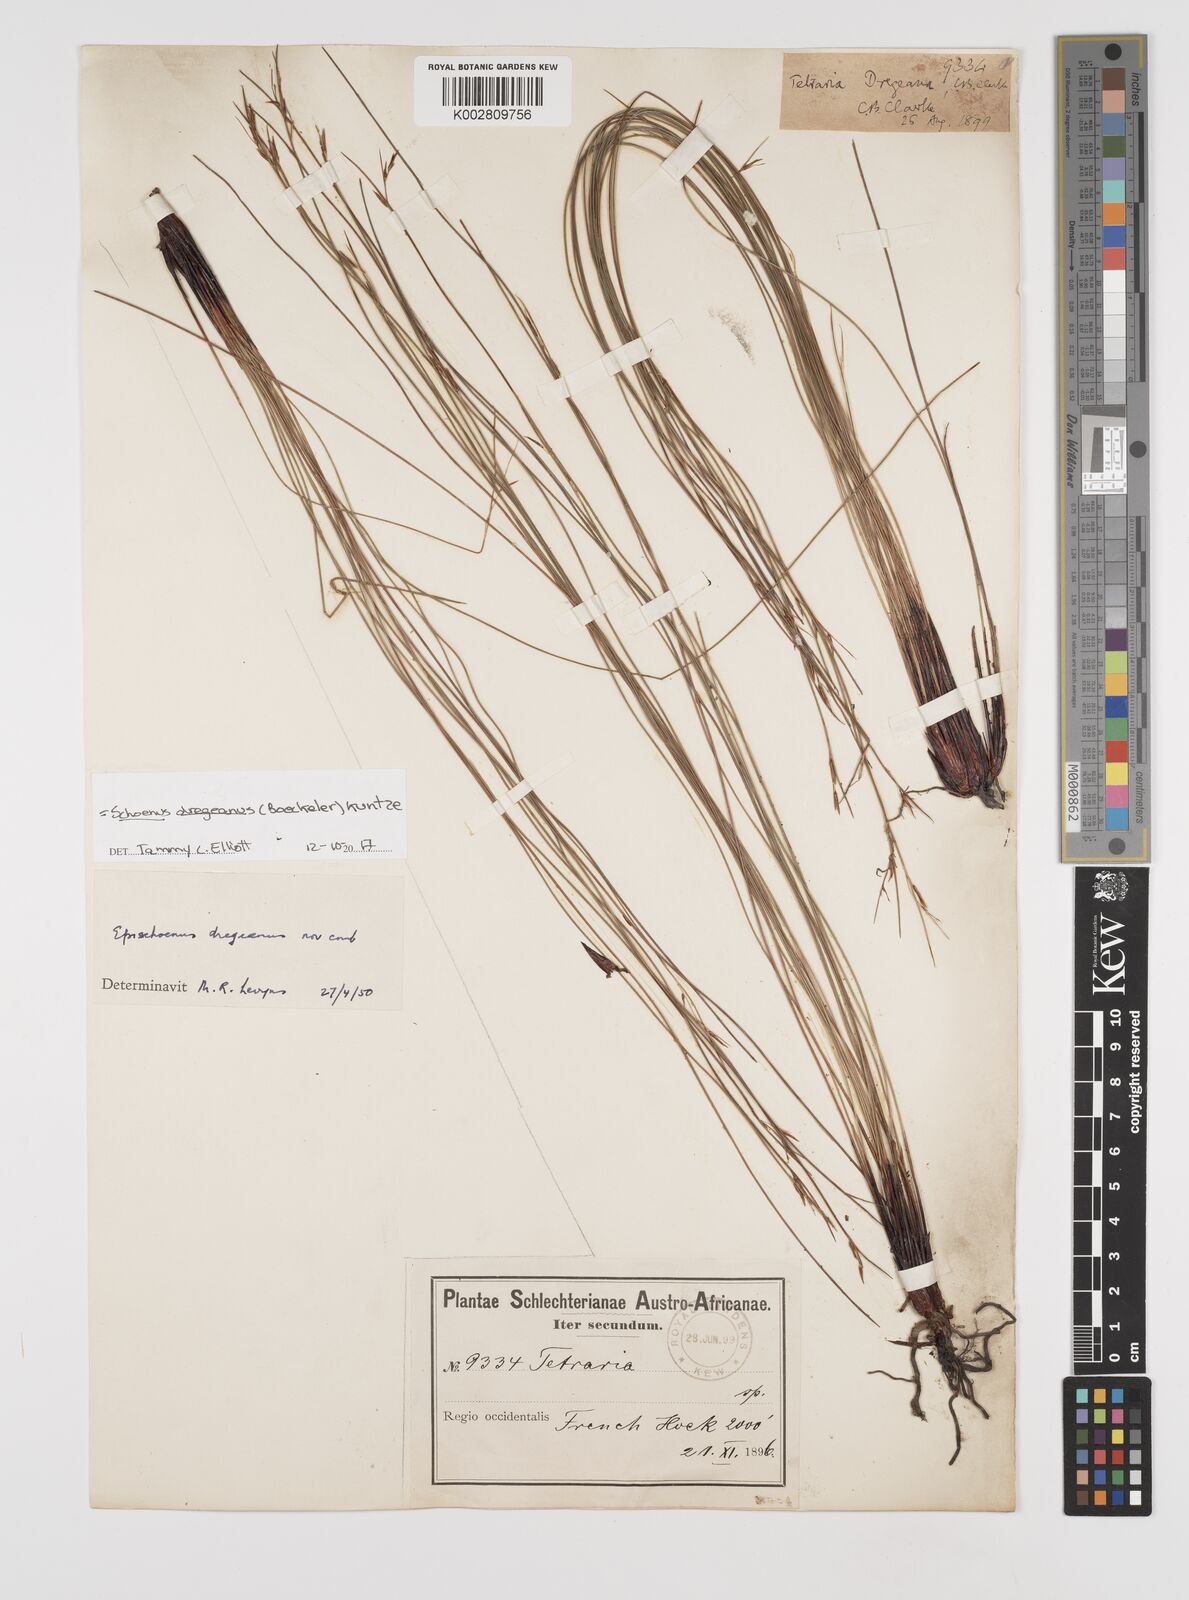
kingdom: Plantae
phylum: Tracheophyta
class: Liliopsida
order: Poales
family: Cyperaceae
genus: Schoenus
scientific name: Schoenus dregeanus
